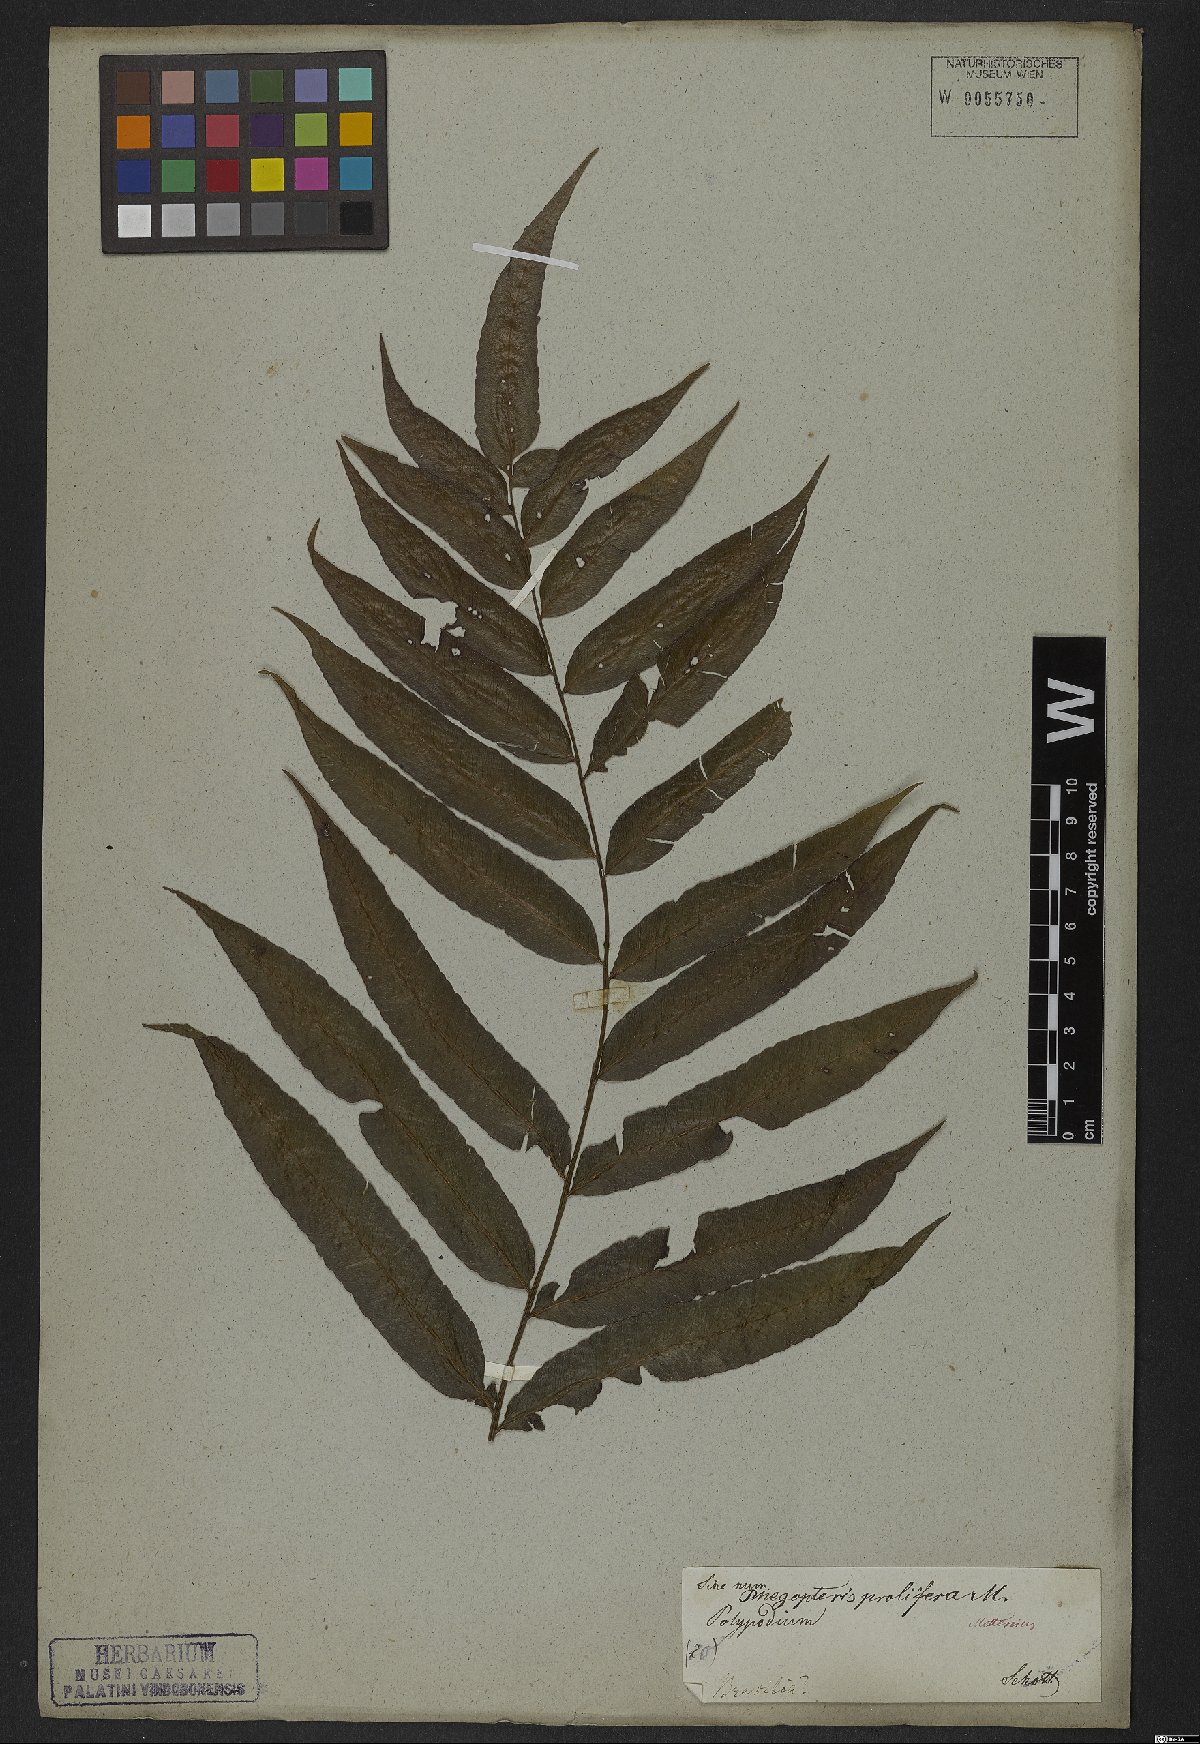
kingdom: Plantae
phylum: Tracheophyta
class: Polypodiopsida
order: Polypodiales
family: Thelypteridaceae
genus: Goniopteris
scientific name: Goniopteris vivipara
